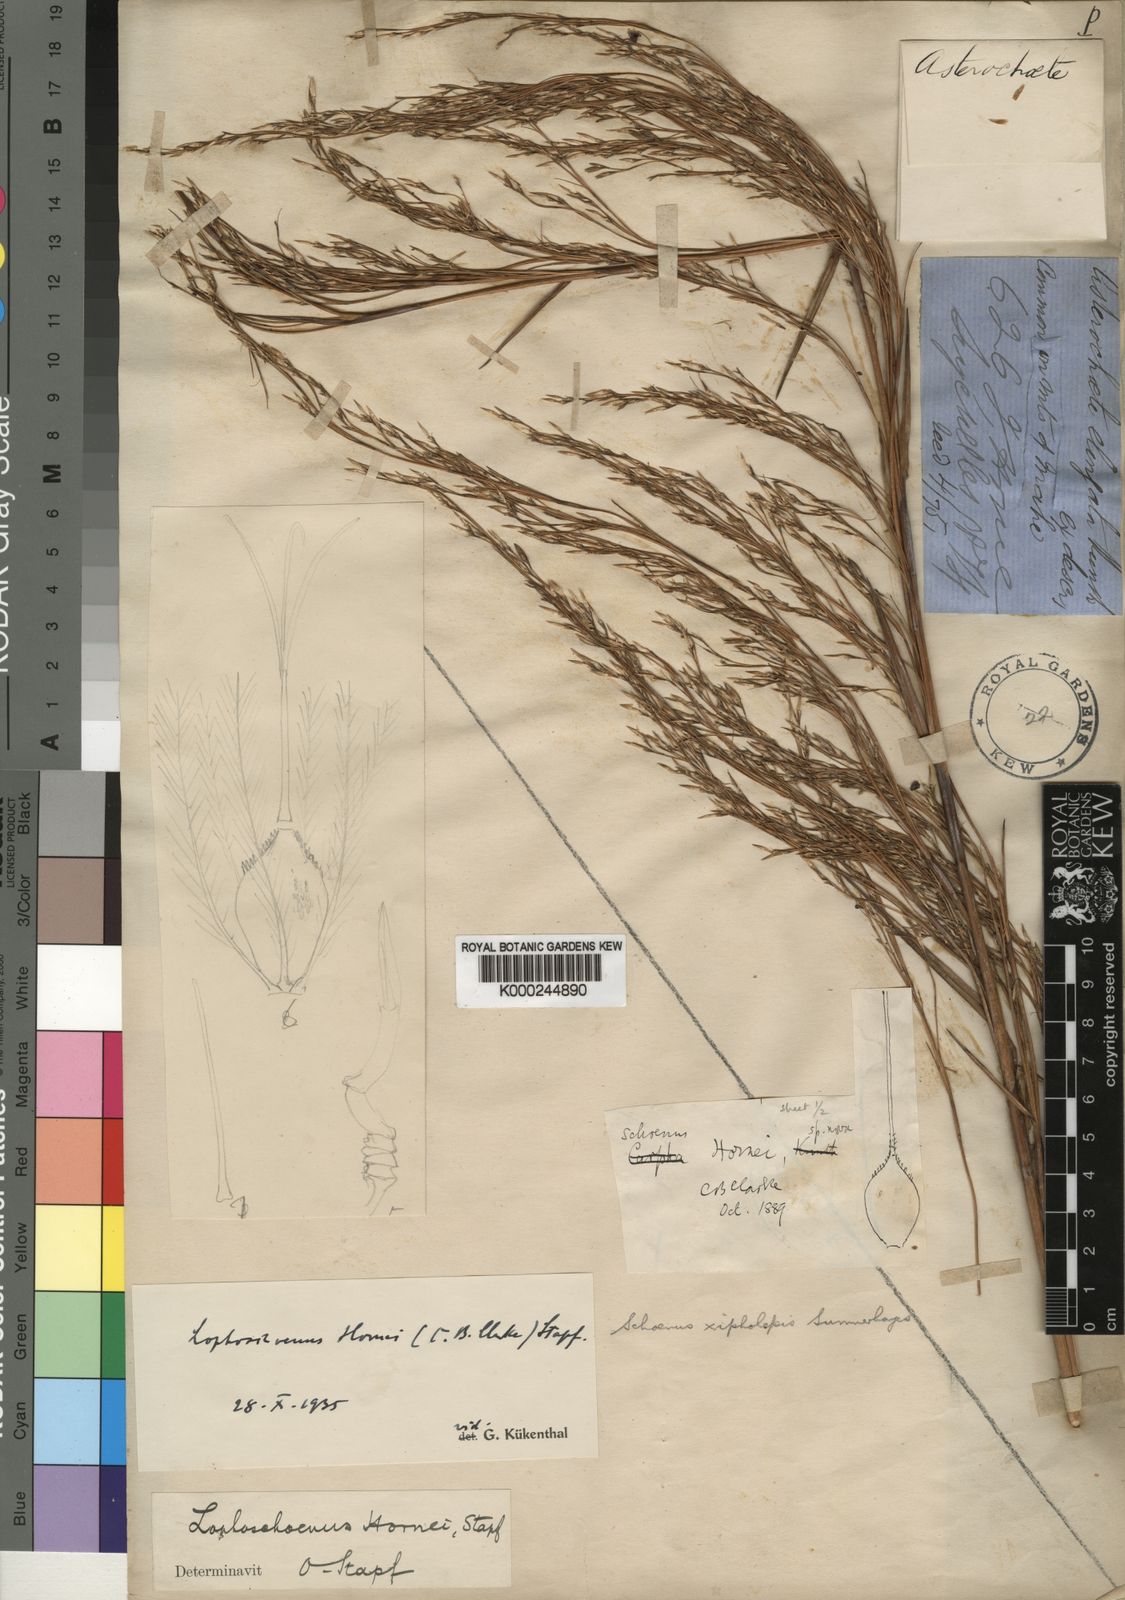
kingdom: Plantae
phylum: Tracheophyta
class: Liliopsida
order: Poales
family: Cyperaceae
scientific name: Cyperaceae
